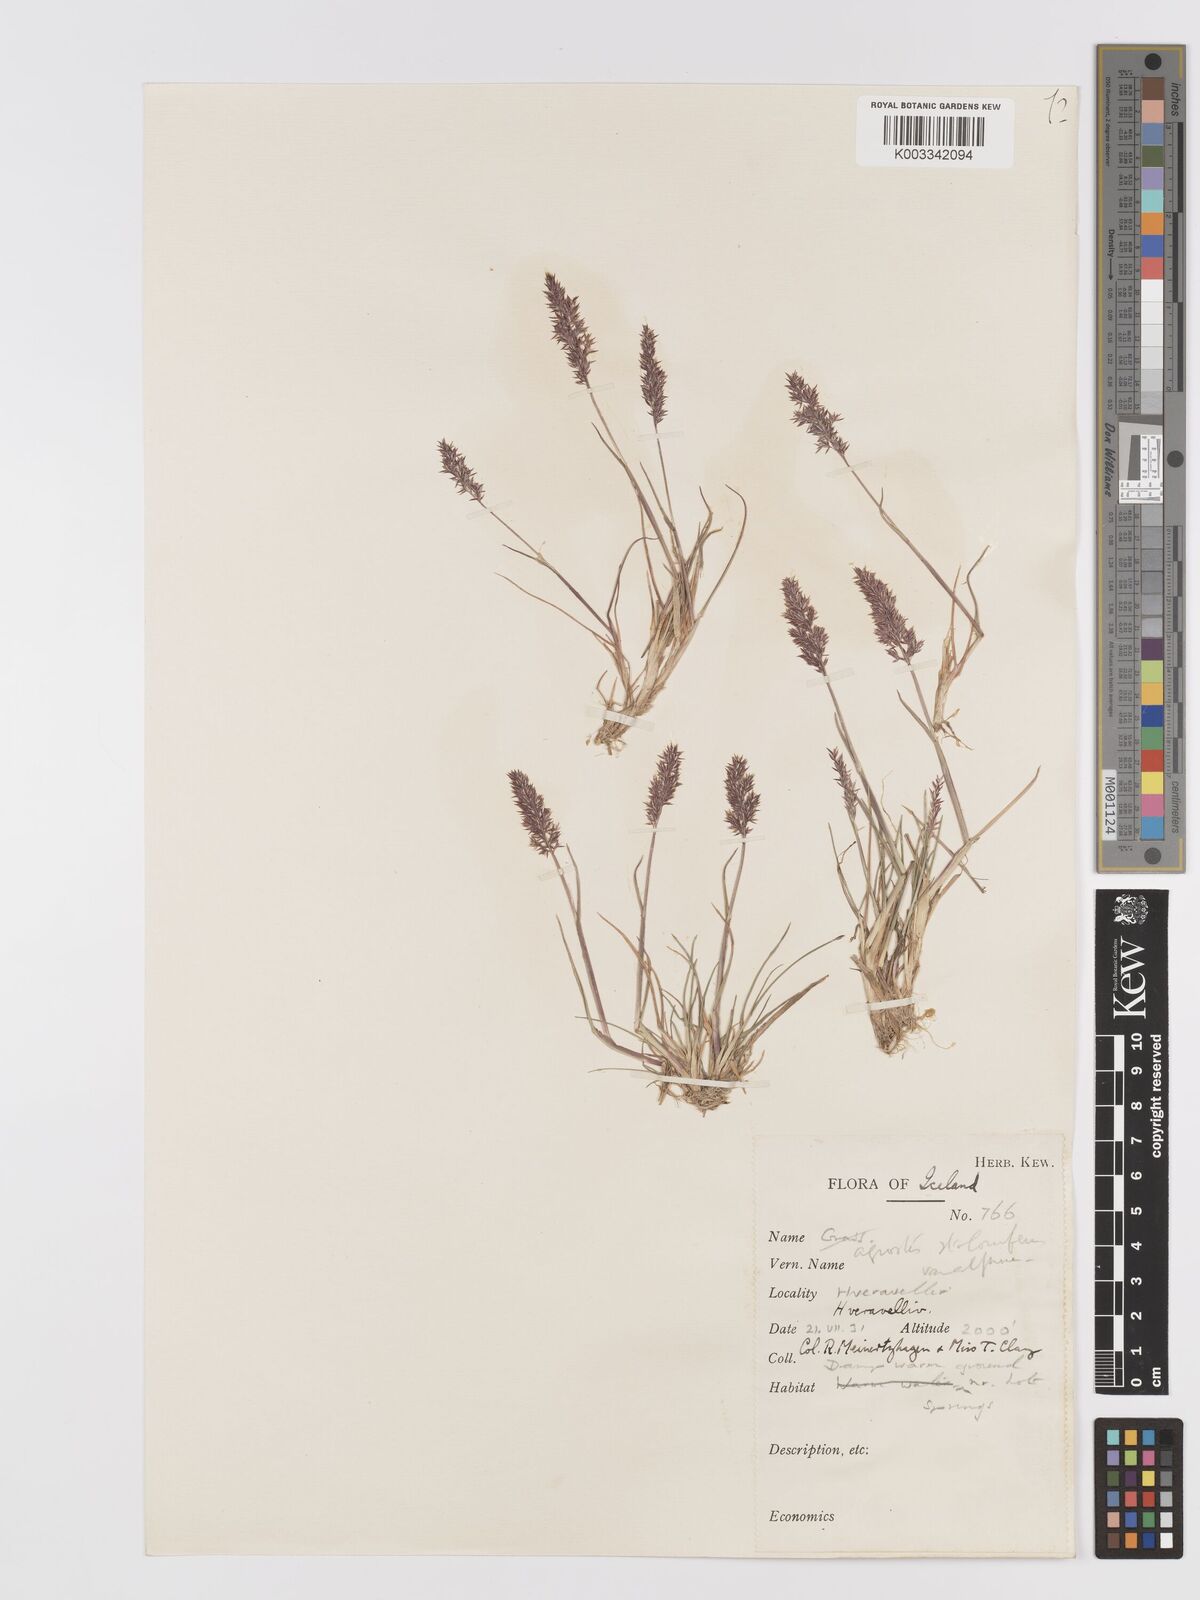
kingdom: Plantae
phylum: Tracheophyta
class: Liliopsida
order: Poales
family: Poaceae
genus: Agrostis
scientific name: Agrostis stolonifera
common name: Creeping bentgrass
